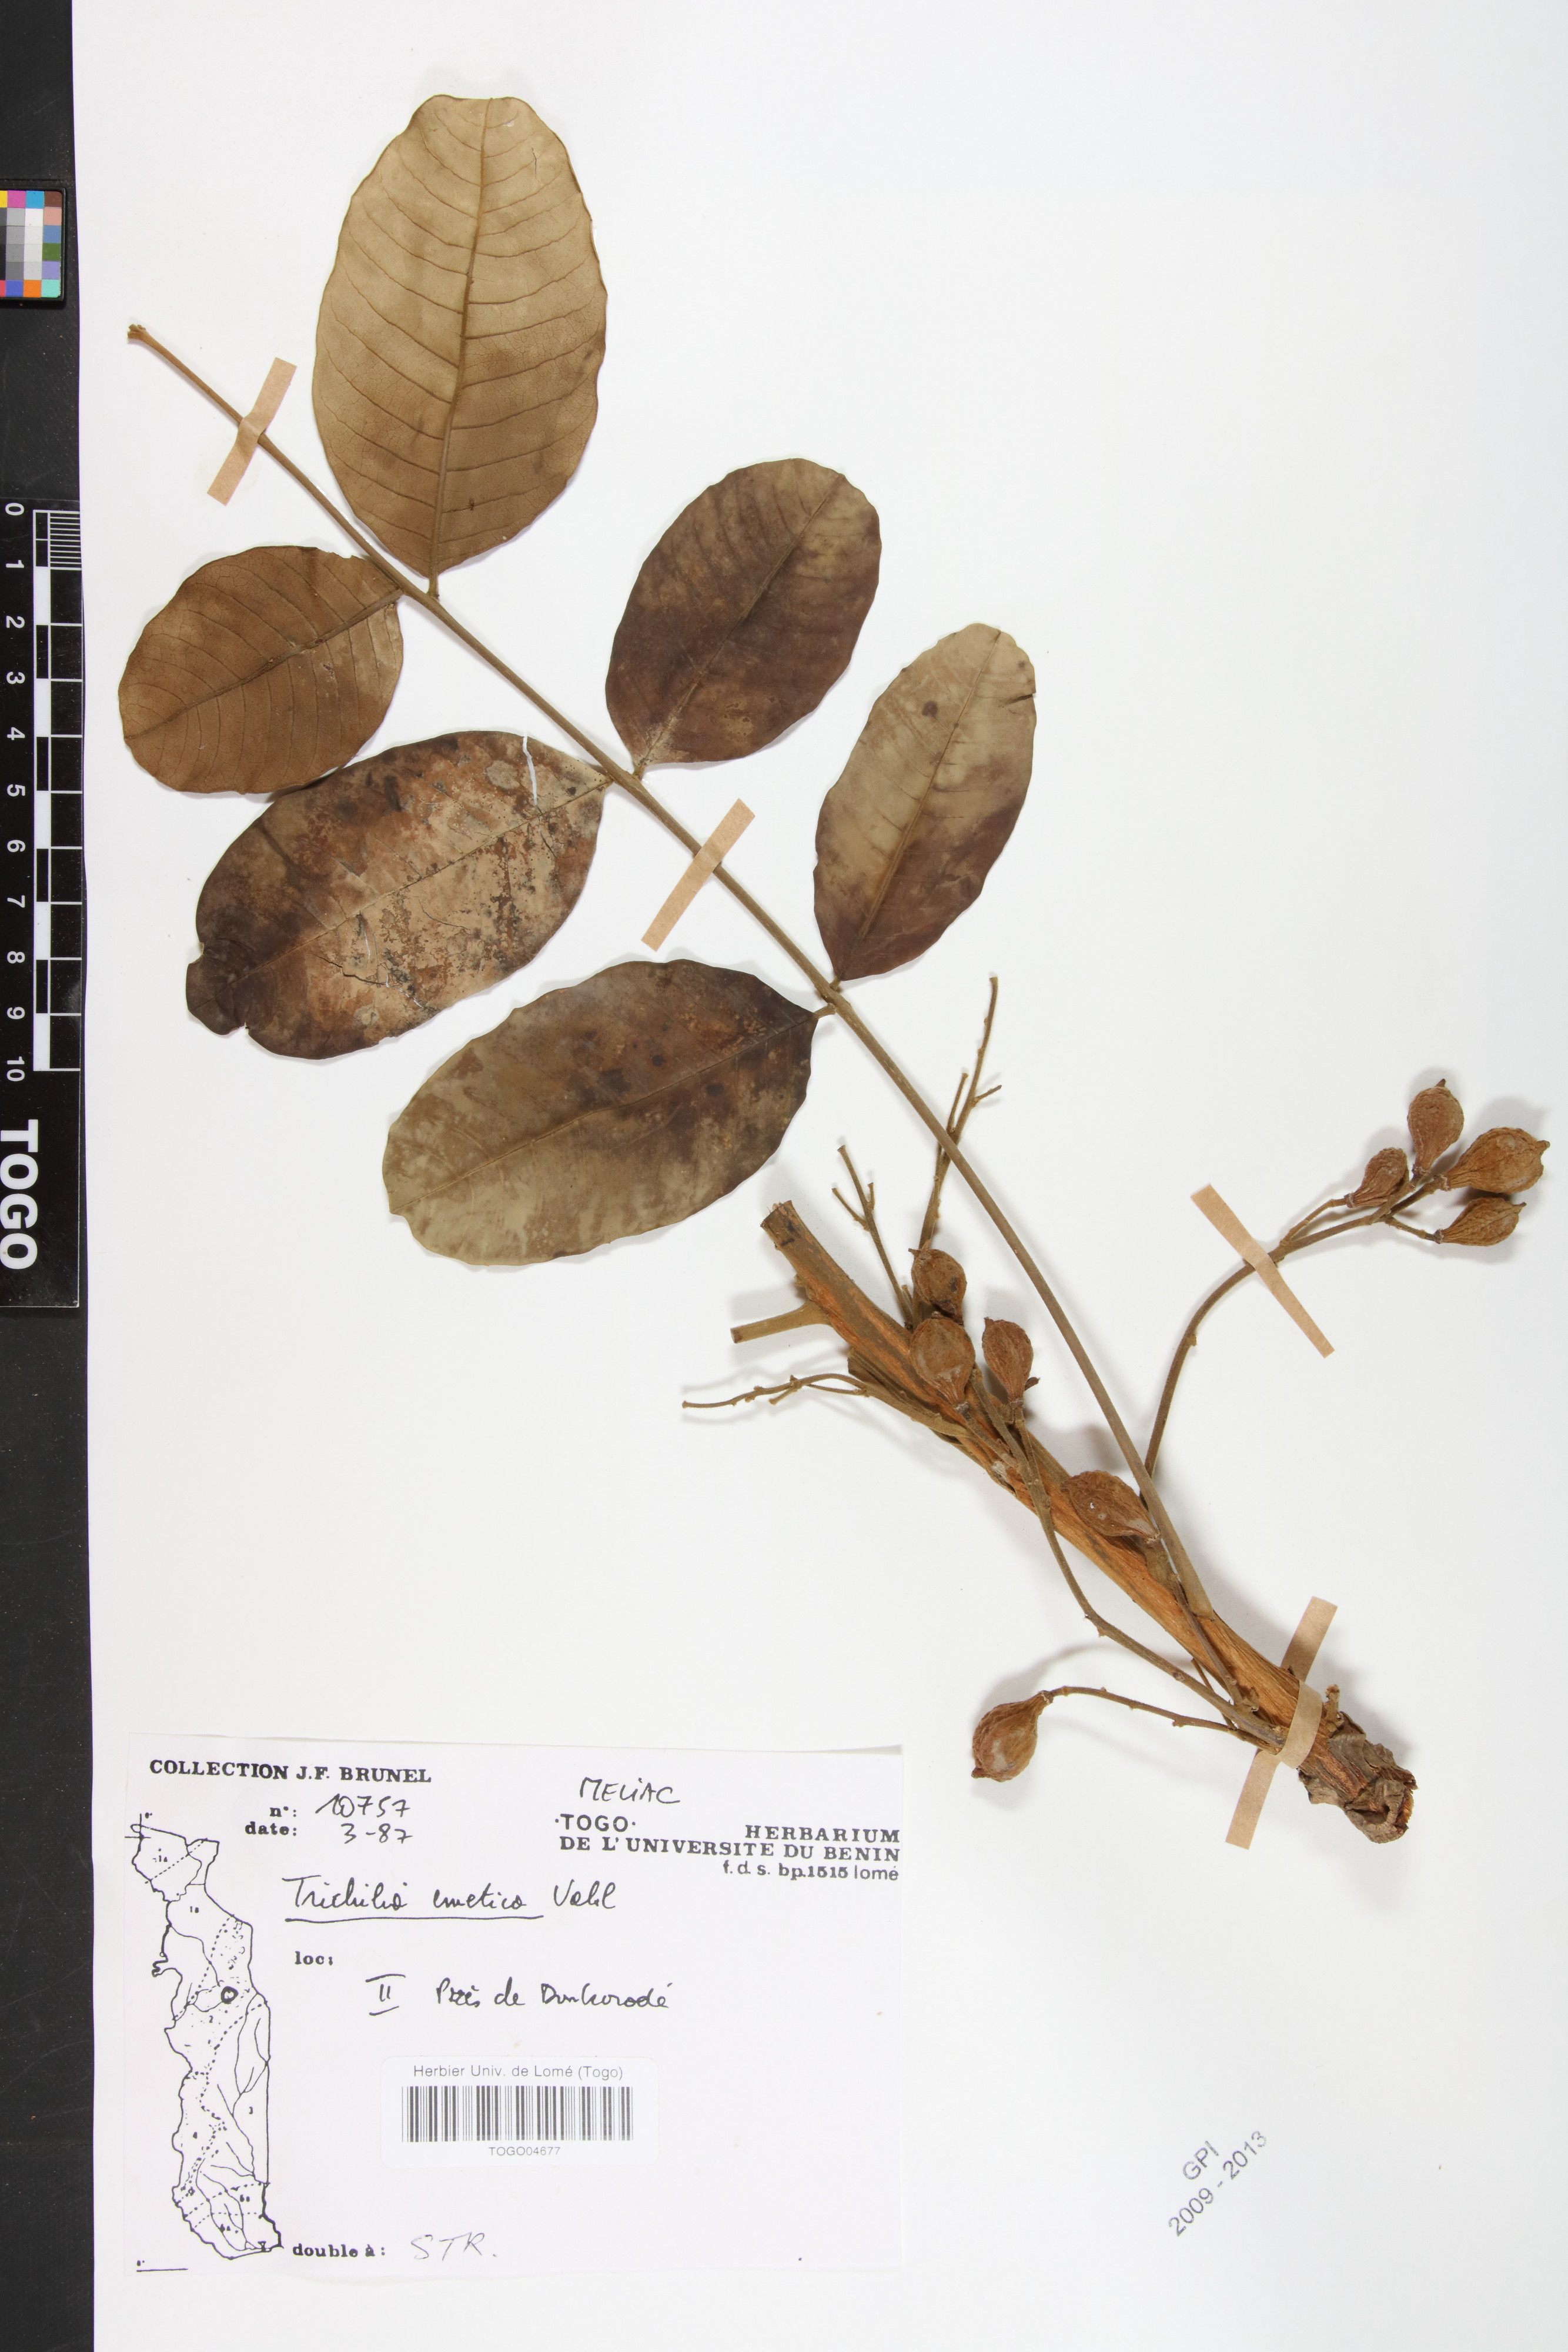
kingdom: Plantae
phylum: Tracheophyta
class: Magnoliopsida
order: Sapindales
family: Meliaceae
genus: Trichilia
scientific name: Trichilia emetica
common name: Christmas-bells
